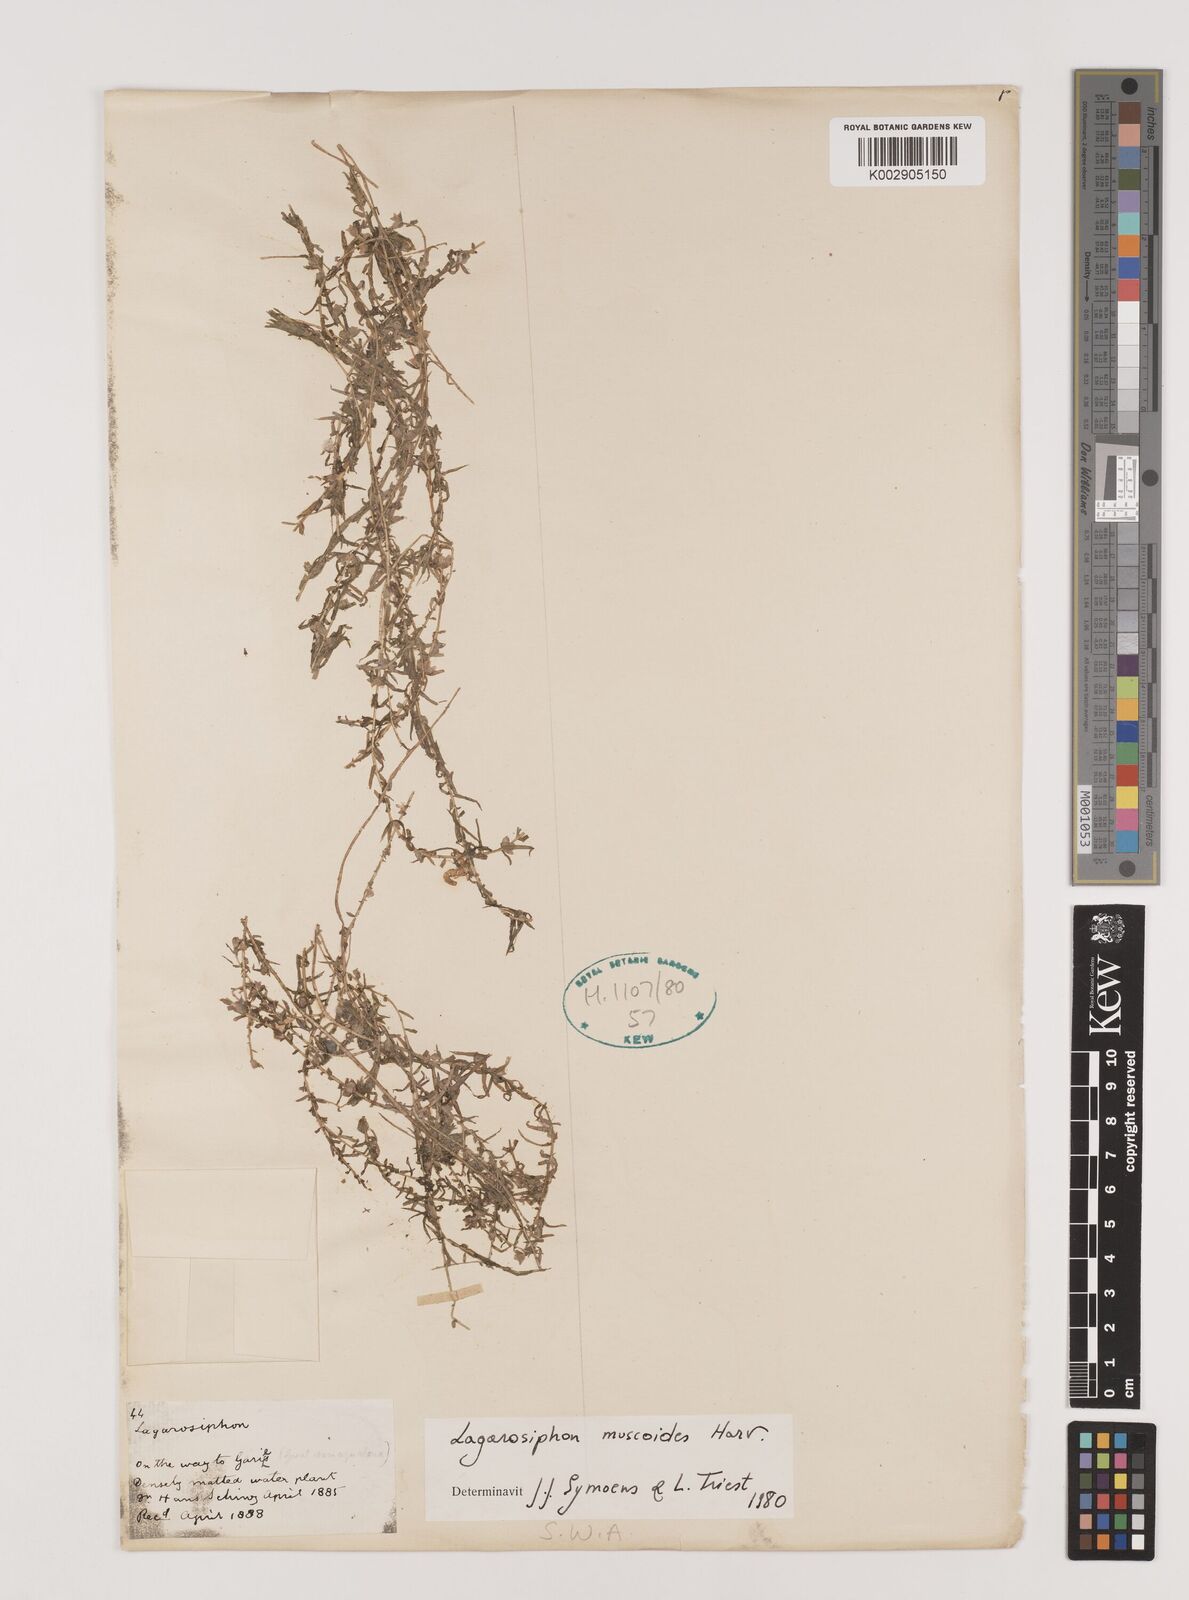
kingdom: Plantae
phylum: Tracheophyta
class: Liliopsida
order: Alismatales
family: Hydrocharitaceae
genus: Lagarosiphon
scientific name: Lagarosiphon muscoides
